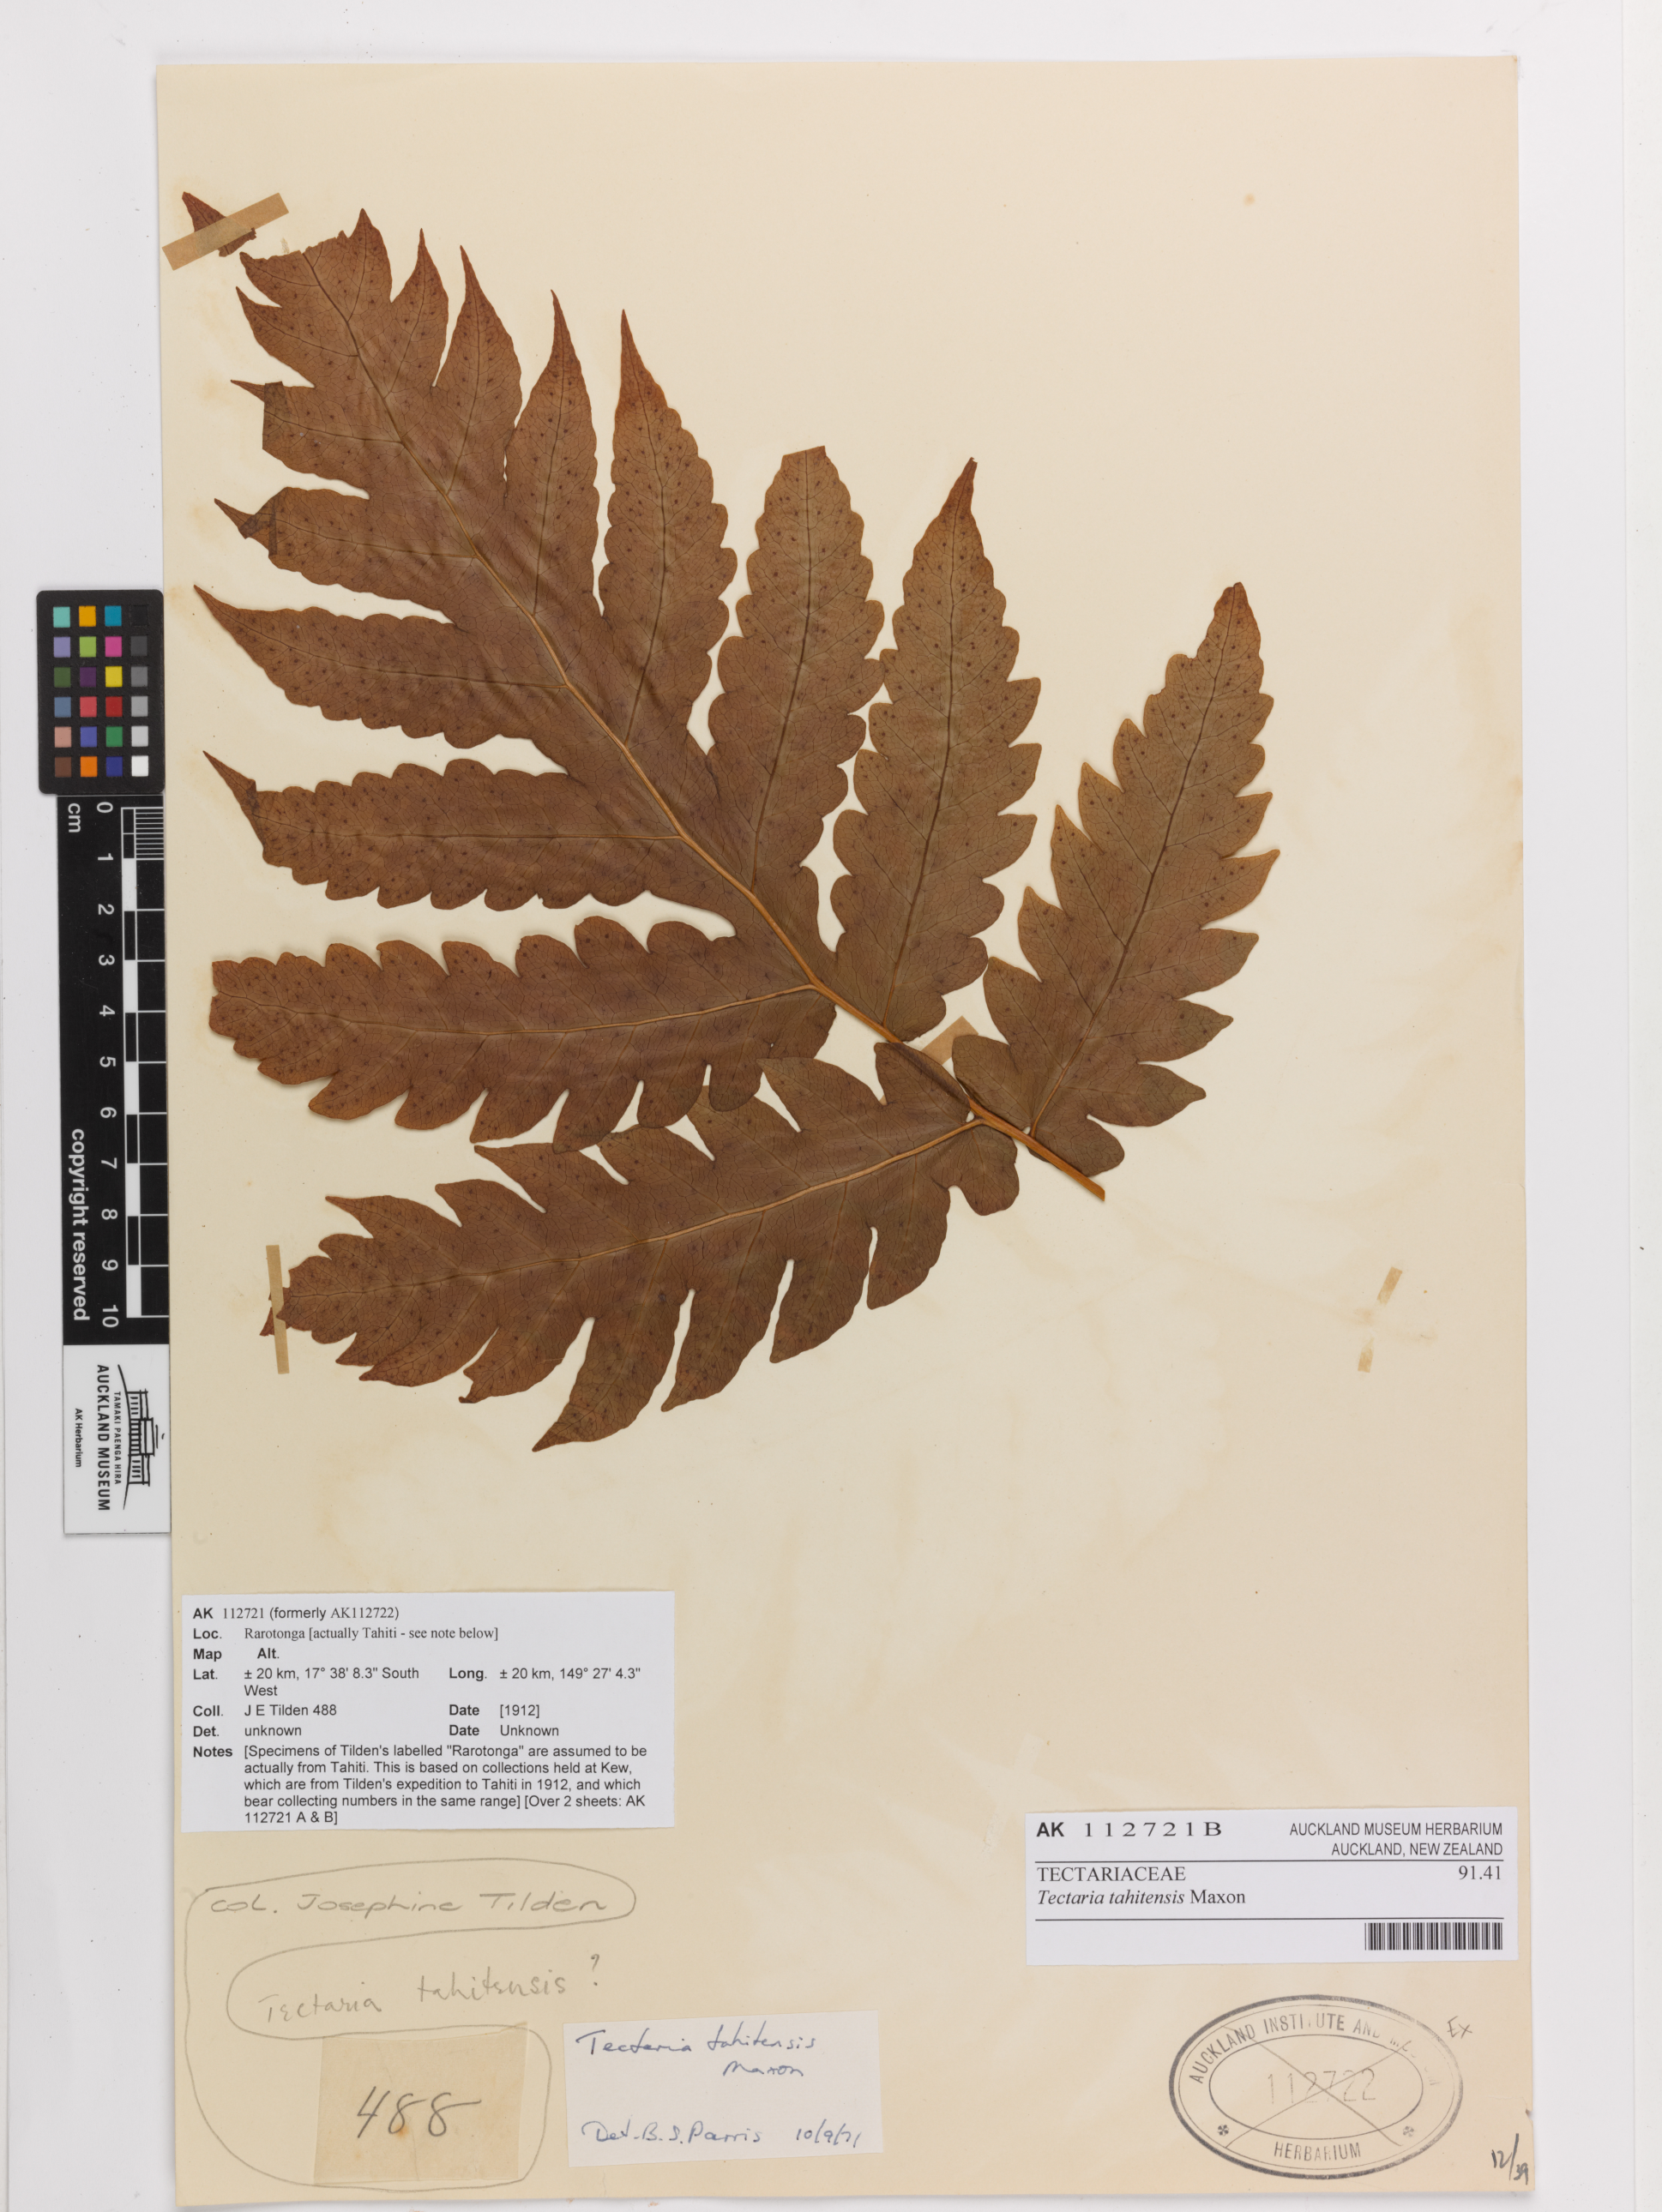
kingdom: Plantae
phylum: Tracheophyta
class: Polypodiopsida
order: Polypodiales
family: Tectariaceae
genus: Tectaria
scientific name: Tectaria lessonii
